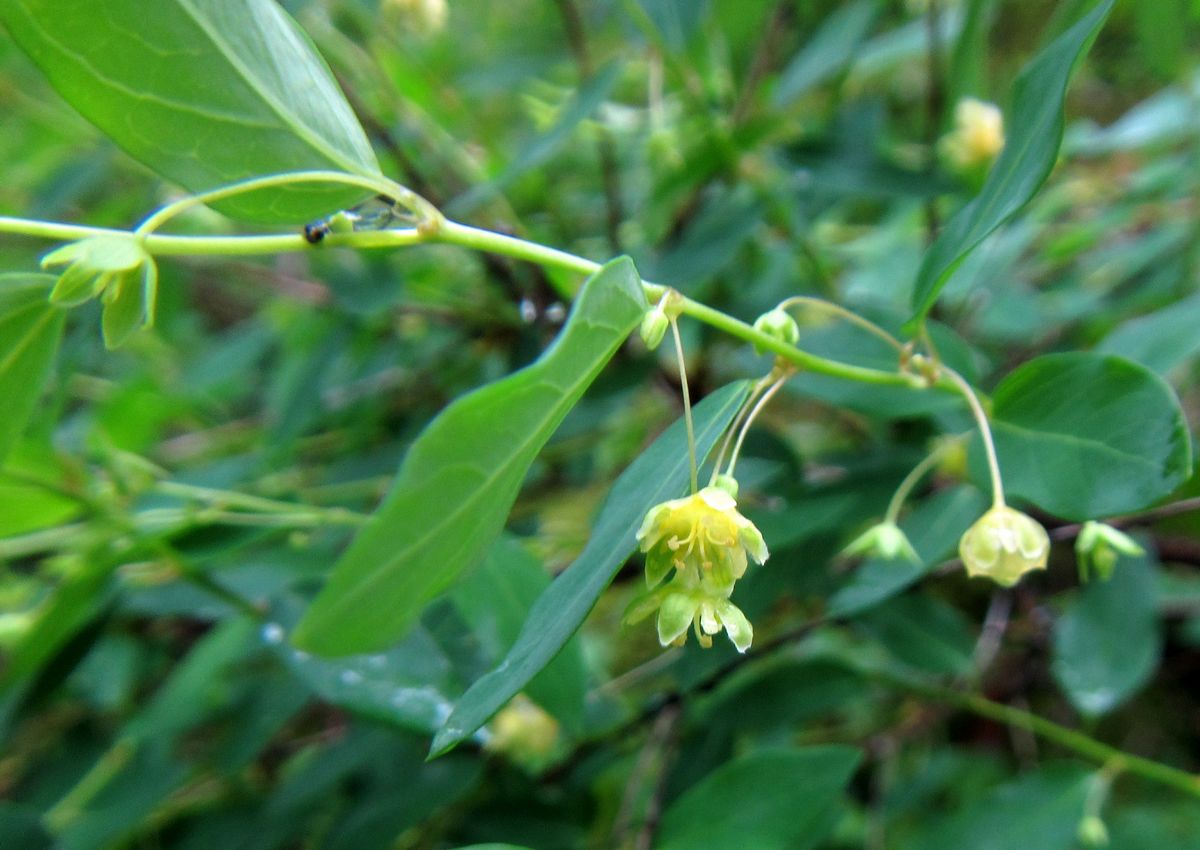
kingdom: Plantae
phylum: Tracheophyta
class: Magnoliopsida
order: Malpighiales
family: Phyllanthaceae
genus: Leptopus
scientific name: Leptopus chinensis
